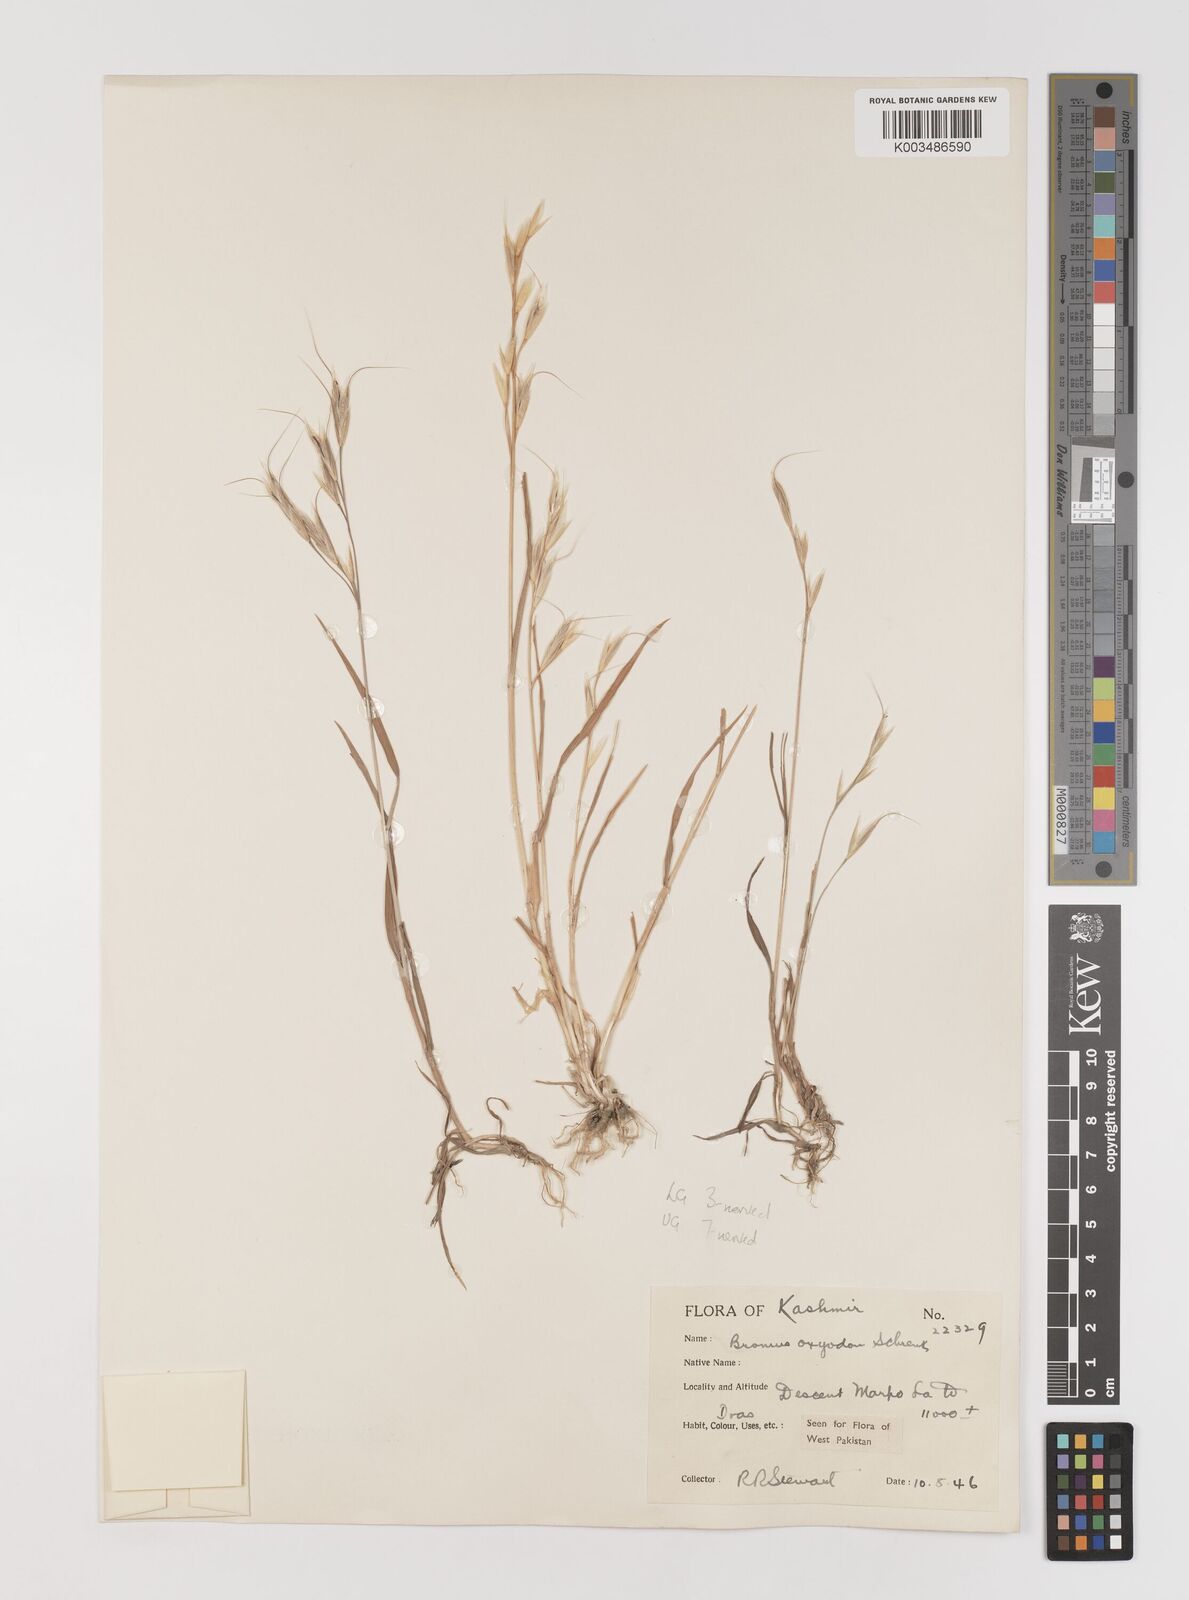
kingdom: Plantae
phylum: Tracheophyta
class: Liliopsida
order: Poales
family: Poaceae
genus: Bromus
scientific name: Bromus oxyodon
